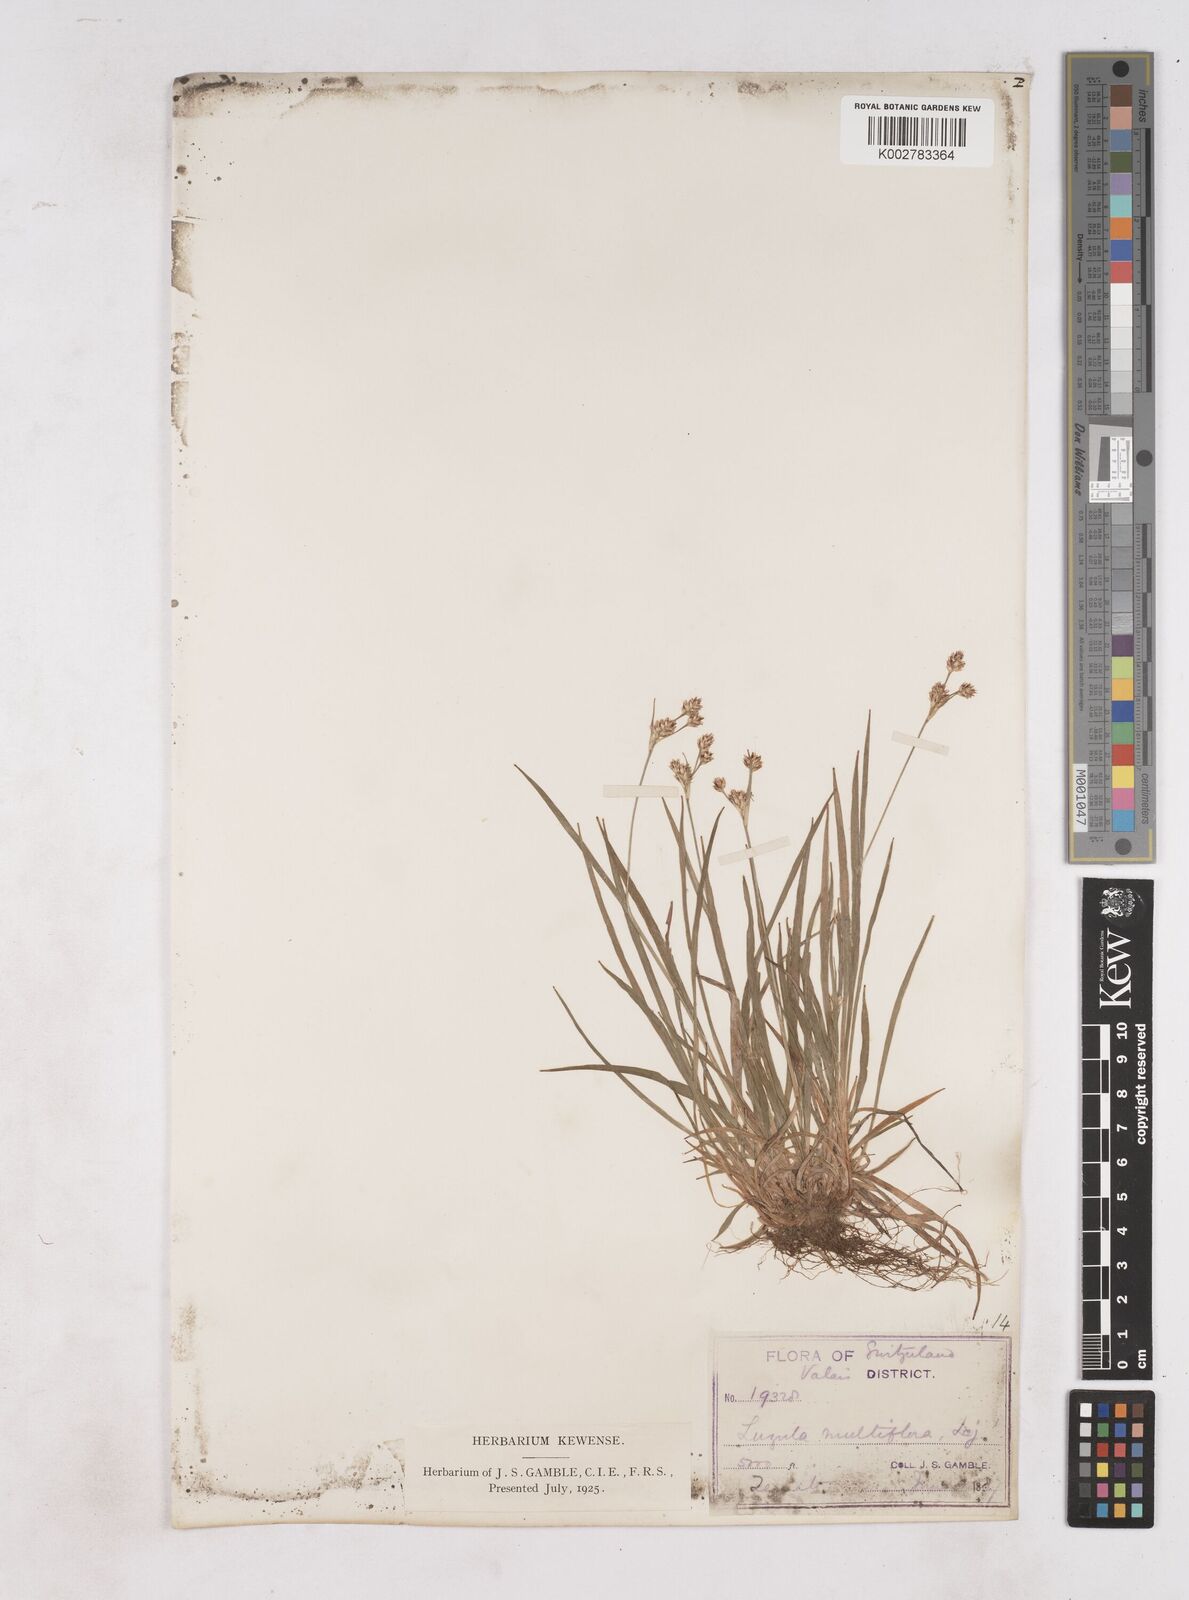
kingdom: Plantae
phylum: Tracheophyta
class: Liliopsida
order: Poales
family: Juncaceae
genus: Luzula
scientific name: Luzula multiflora
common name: Heath wood-rush
